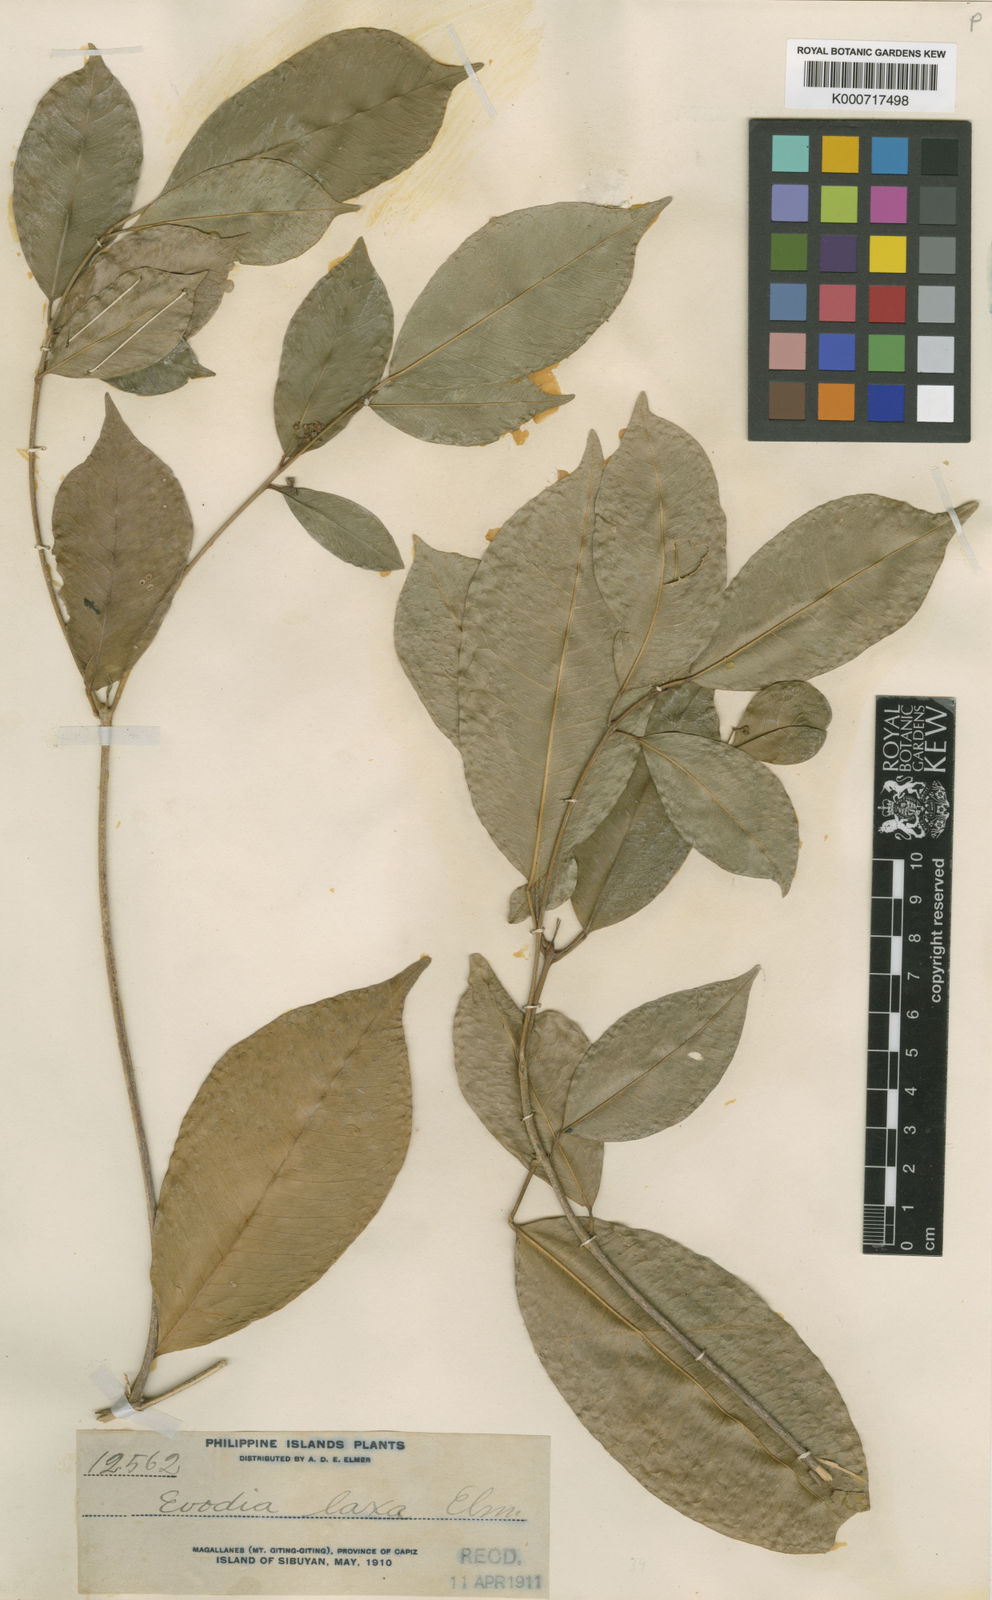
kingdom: Plantae
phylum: Tracheophyta
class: Magnoliopsida
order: Sapindales
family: Rutaceae
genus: Melicope
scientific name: Melicope laxa
